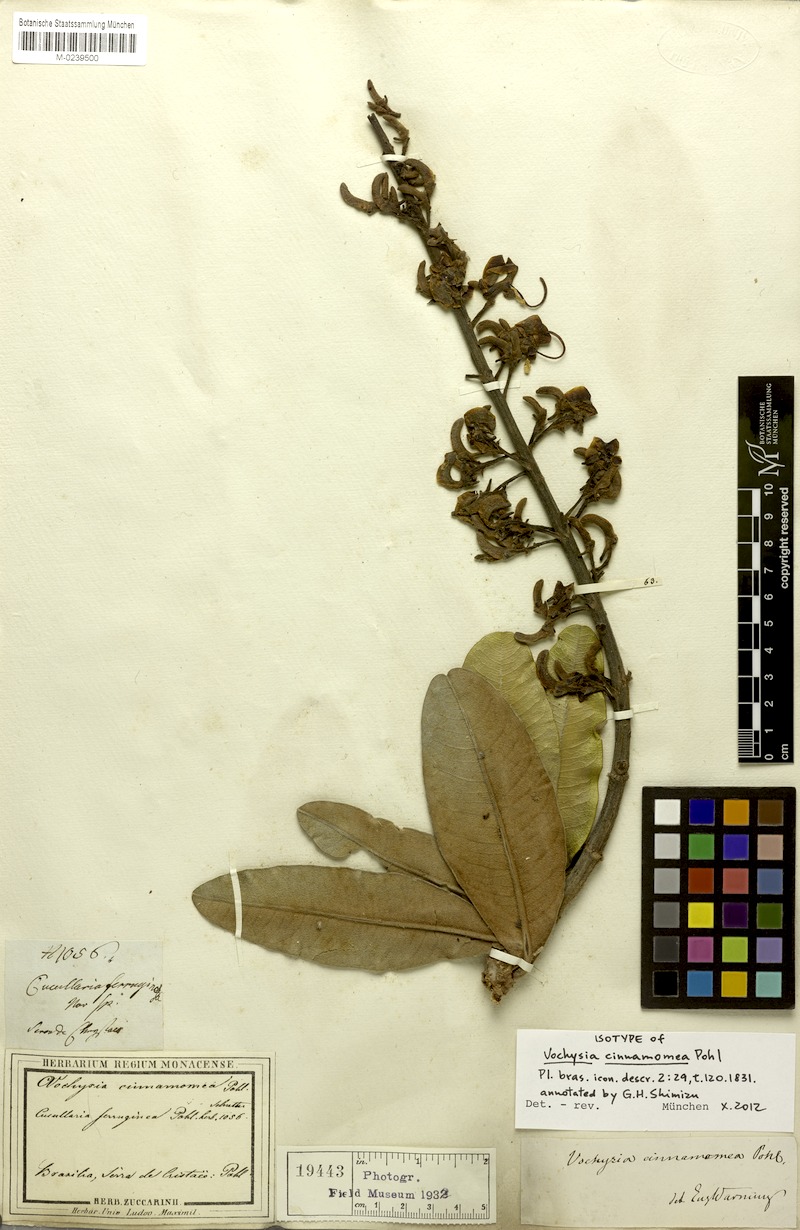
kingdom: Plantae
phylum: Tracheophyta
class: Magnoliopsida
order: Myrtales
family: Vochysiaceae
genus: Vochysia
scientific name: Vochysia cinnamomea
